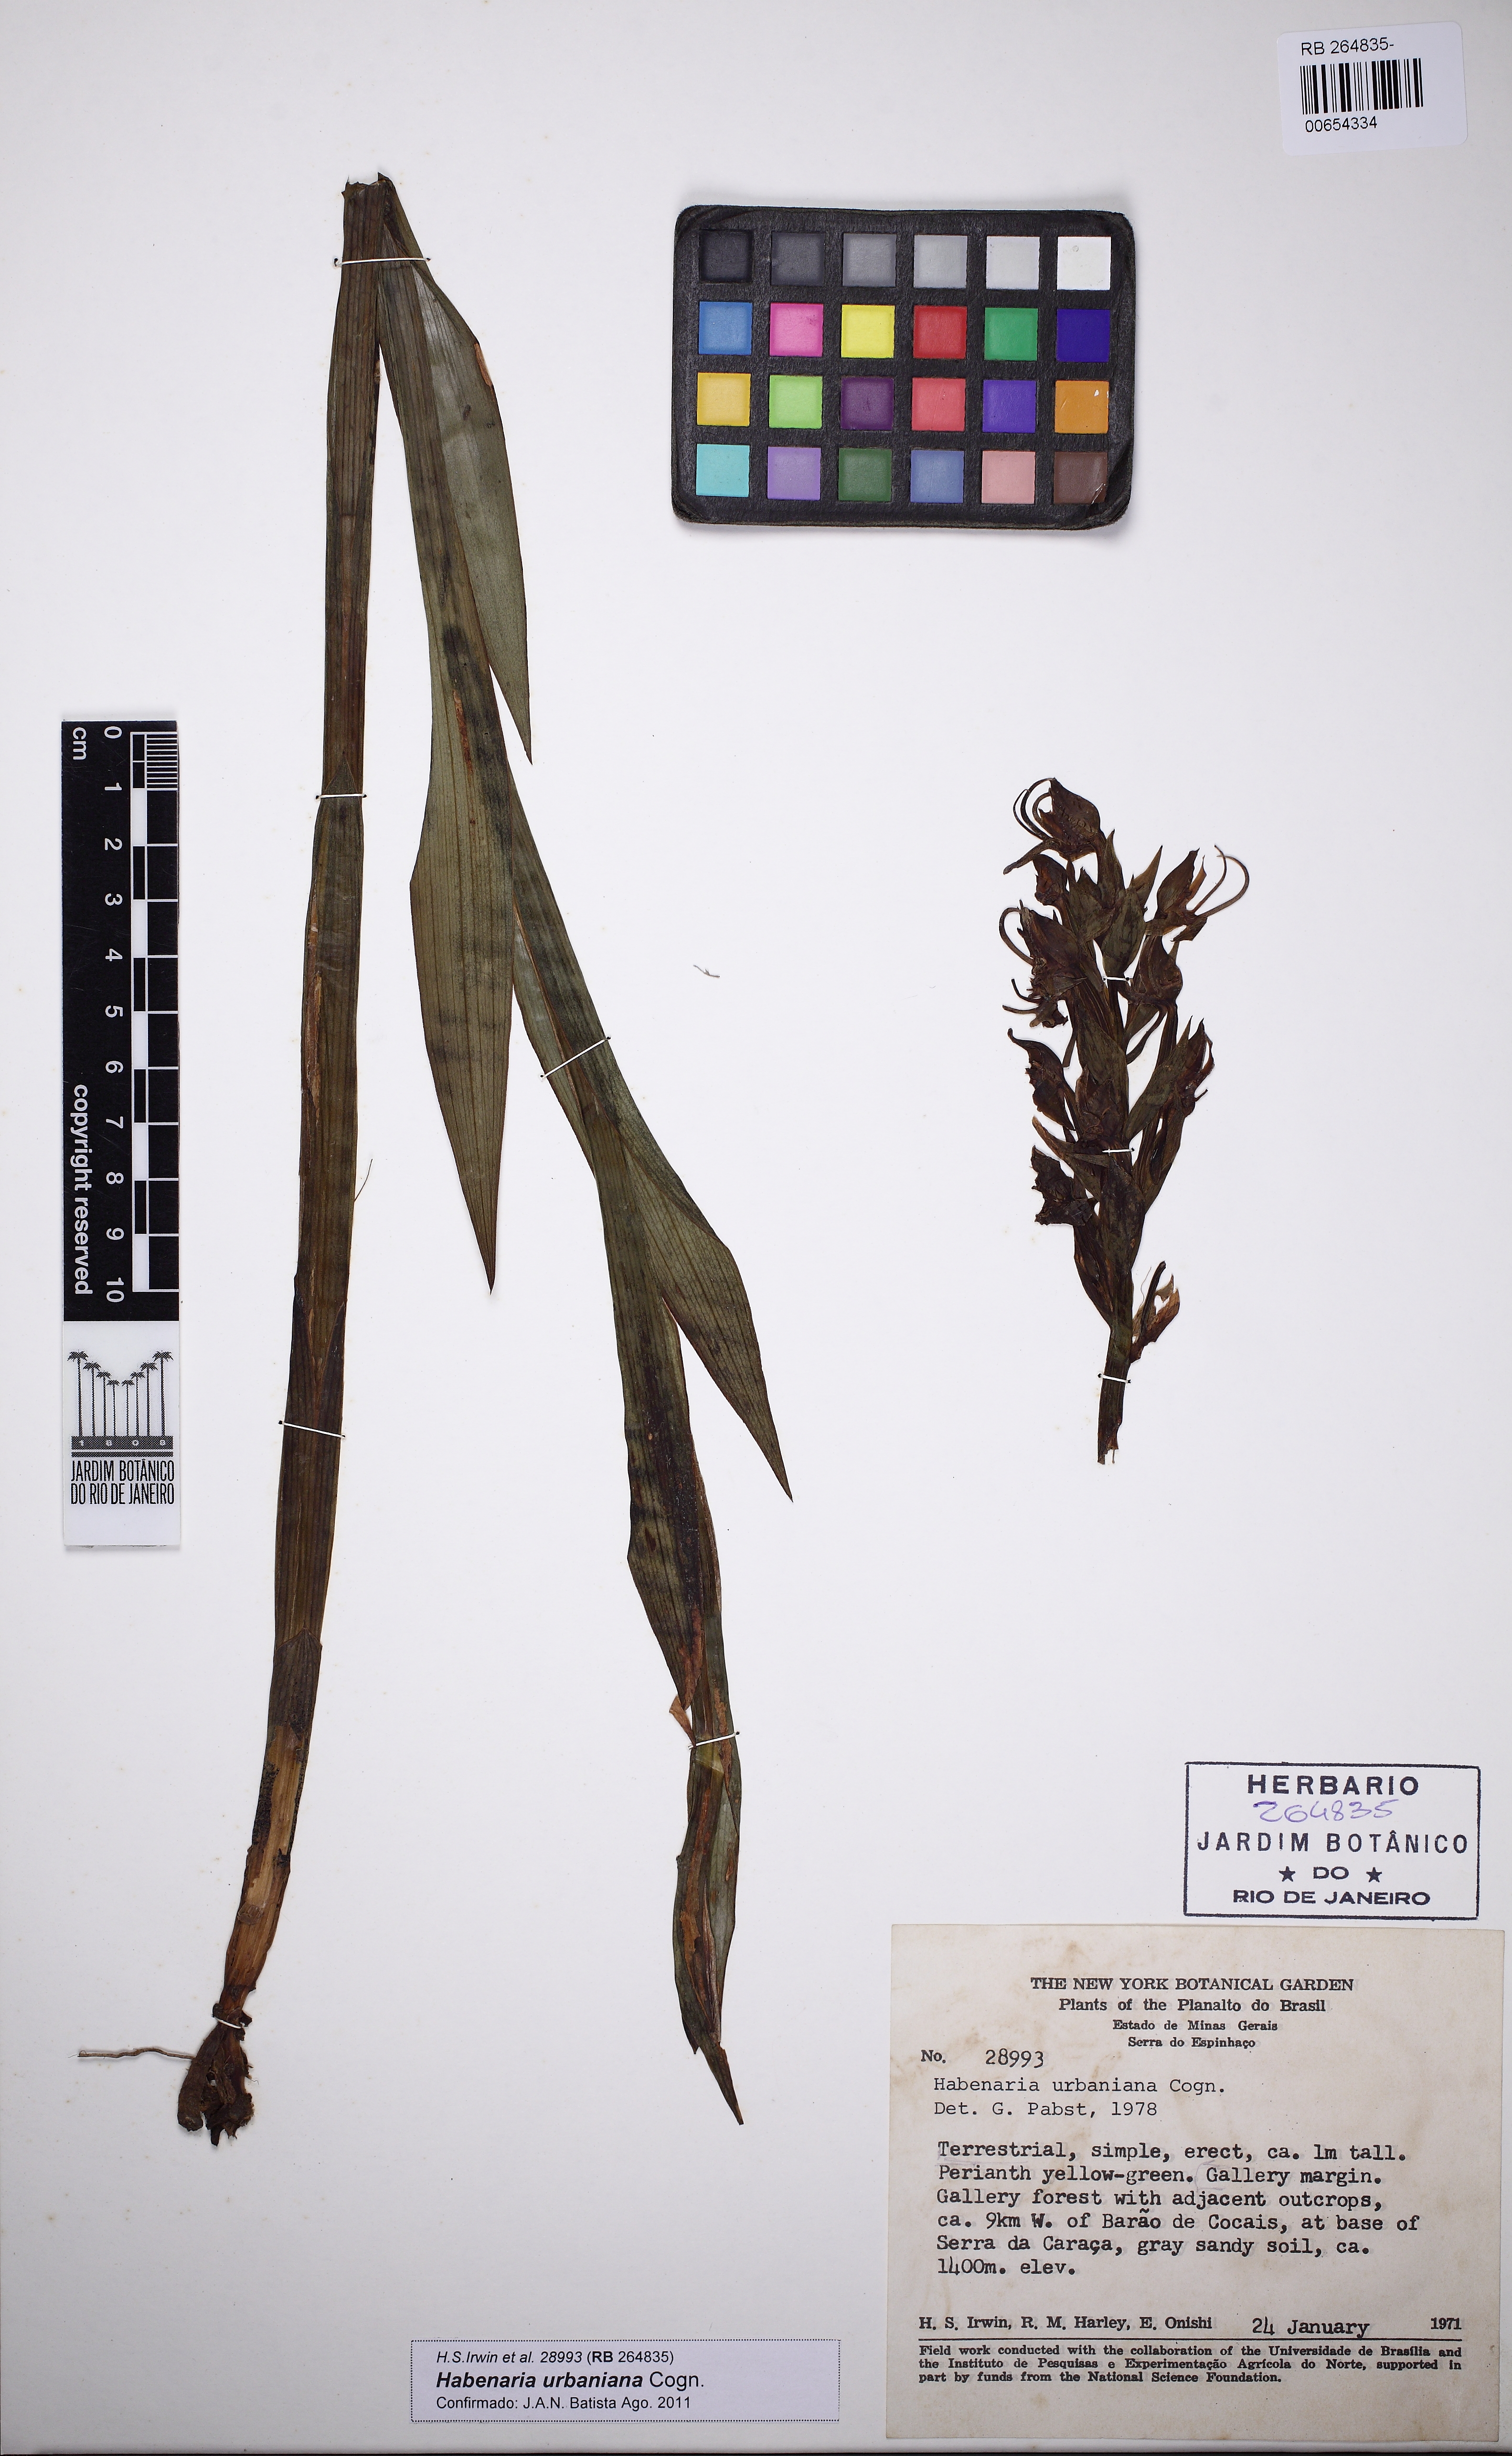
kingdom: Plantae
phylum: Tracheophyta
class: Liliopsida
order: Asparagales
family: Orchidaceae
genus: Habenaria
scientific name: Habenaria urbaniana
